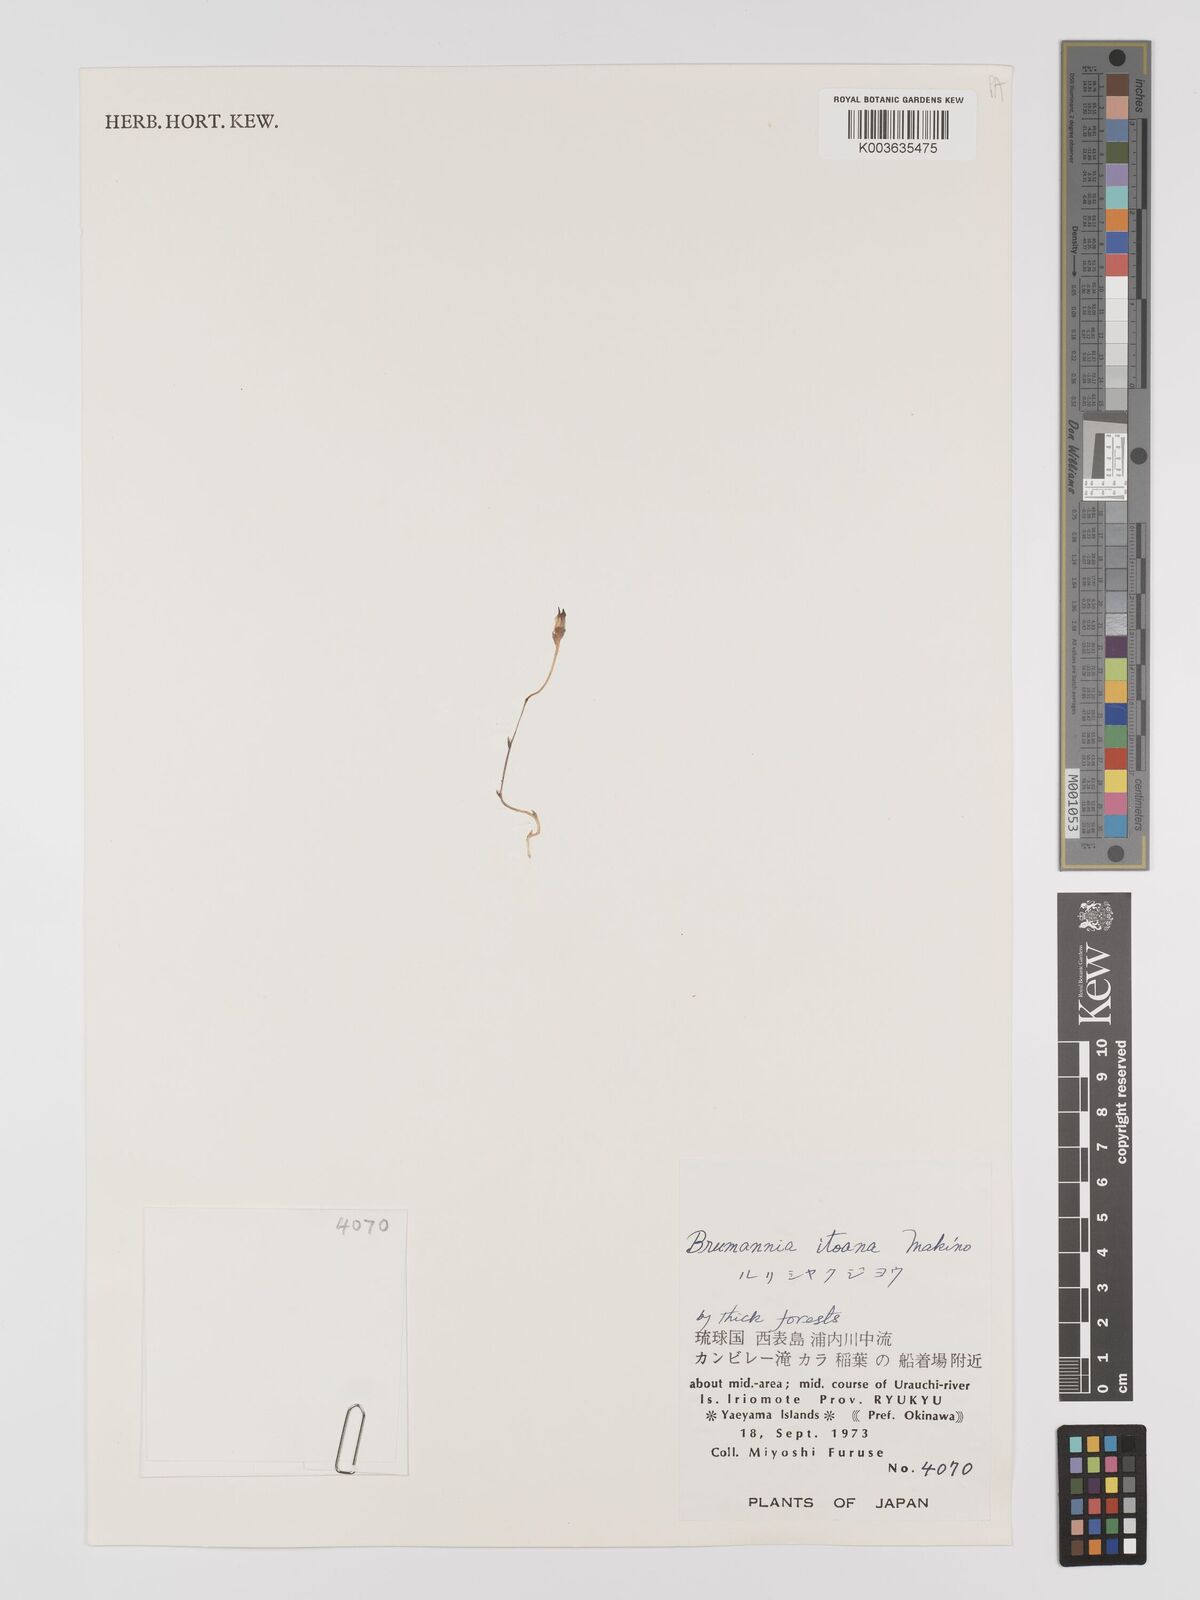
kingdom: Plantae
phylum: Tracheophyta
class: Liliopsida
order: Dioscoreales
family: Burmanniaceae
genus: Burmannia
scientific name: Burmannia itoana
